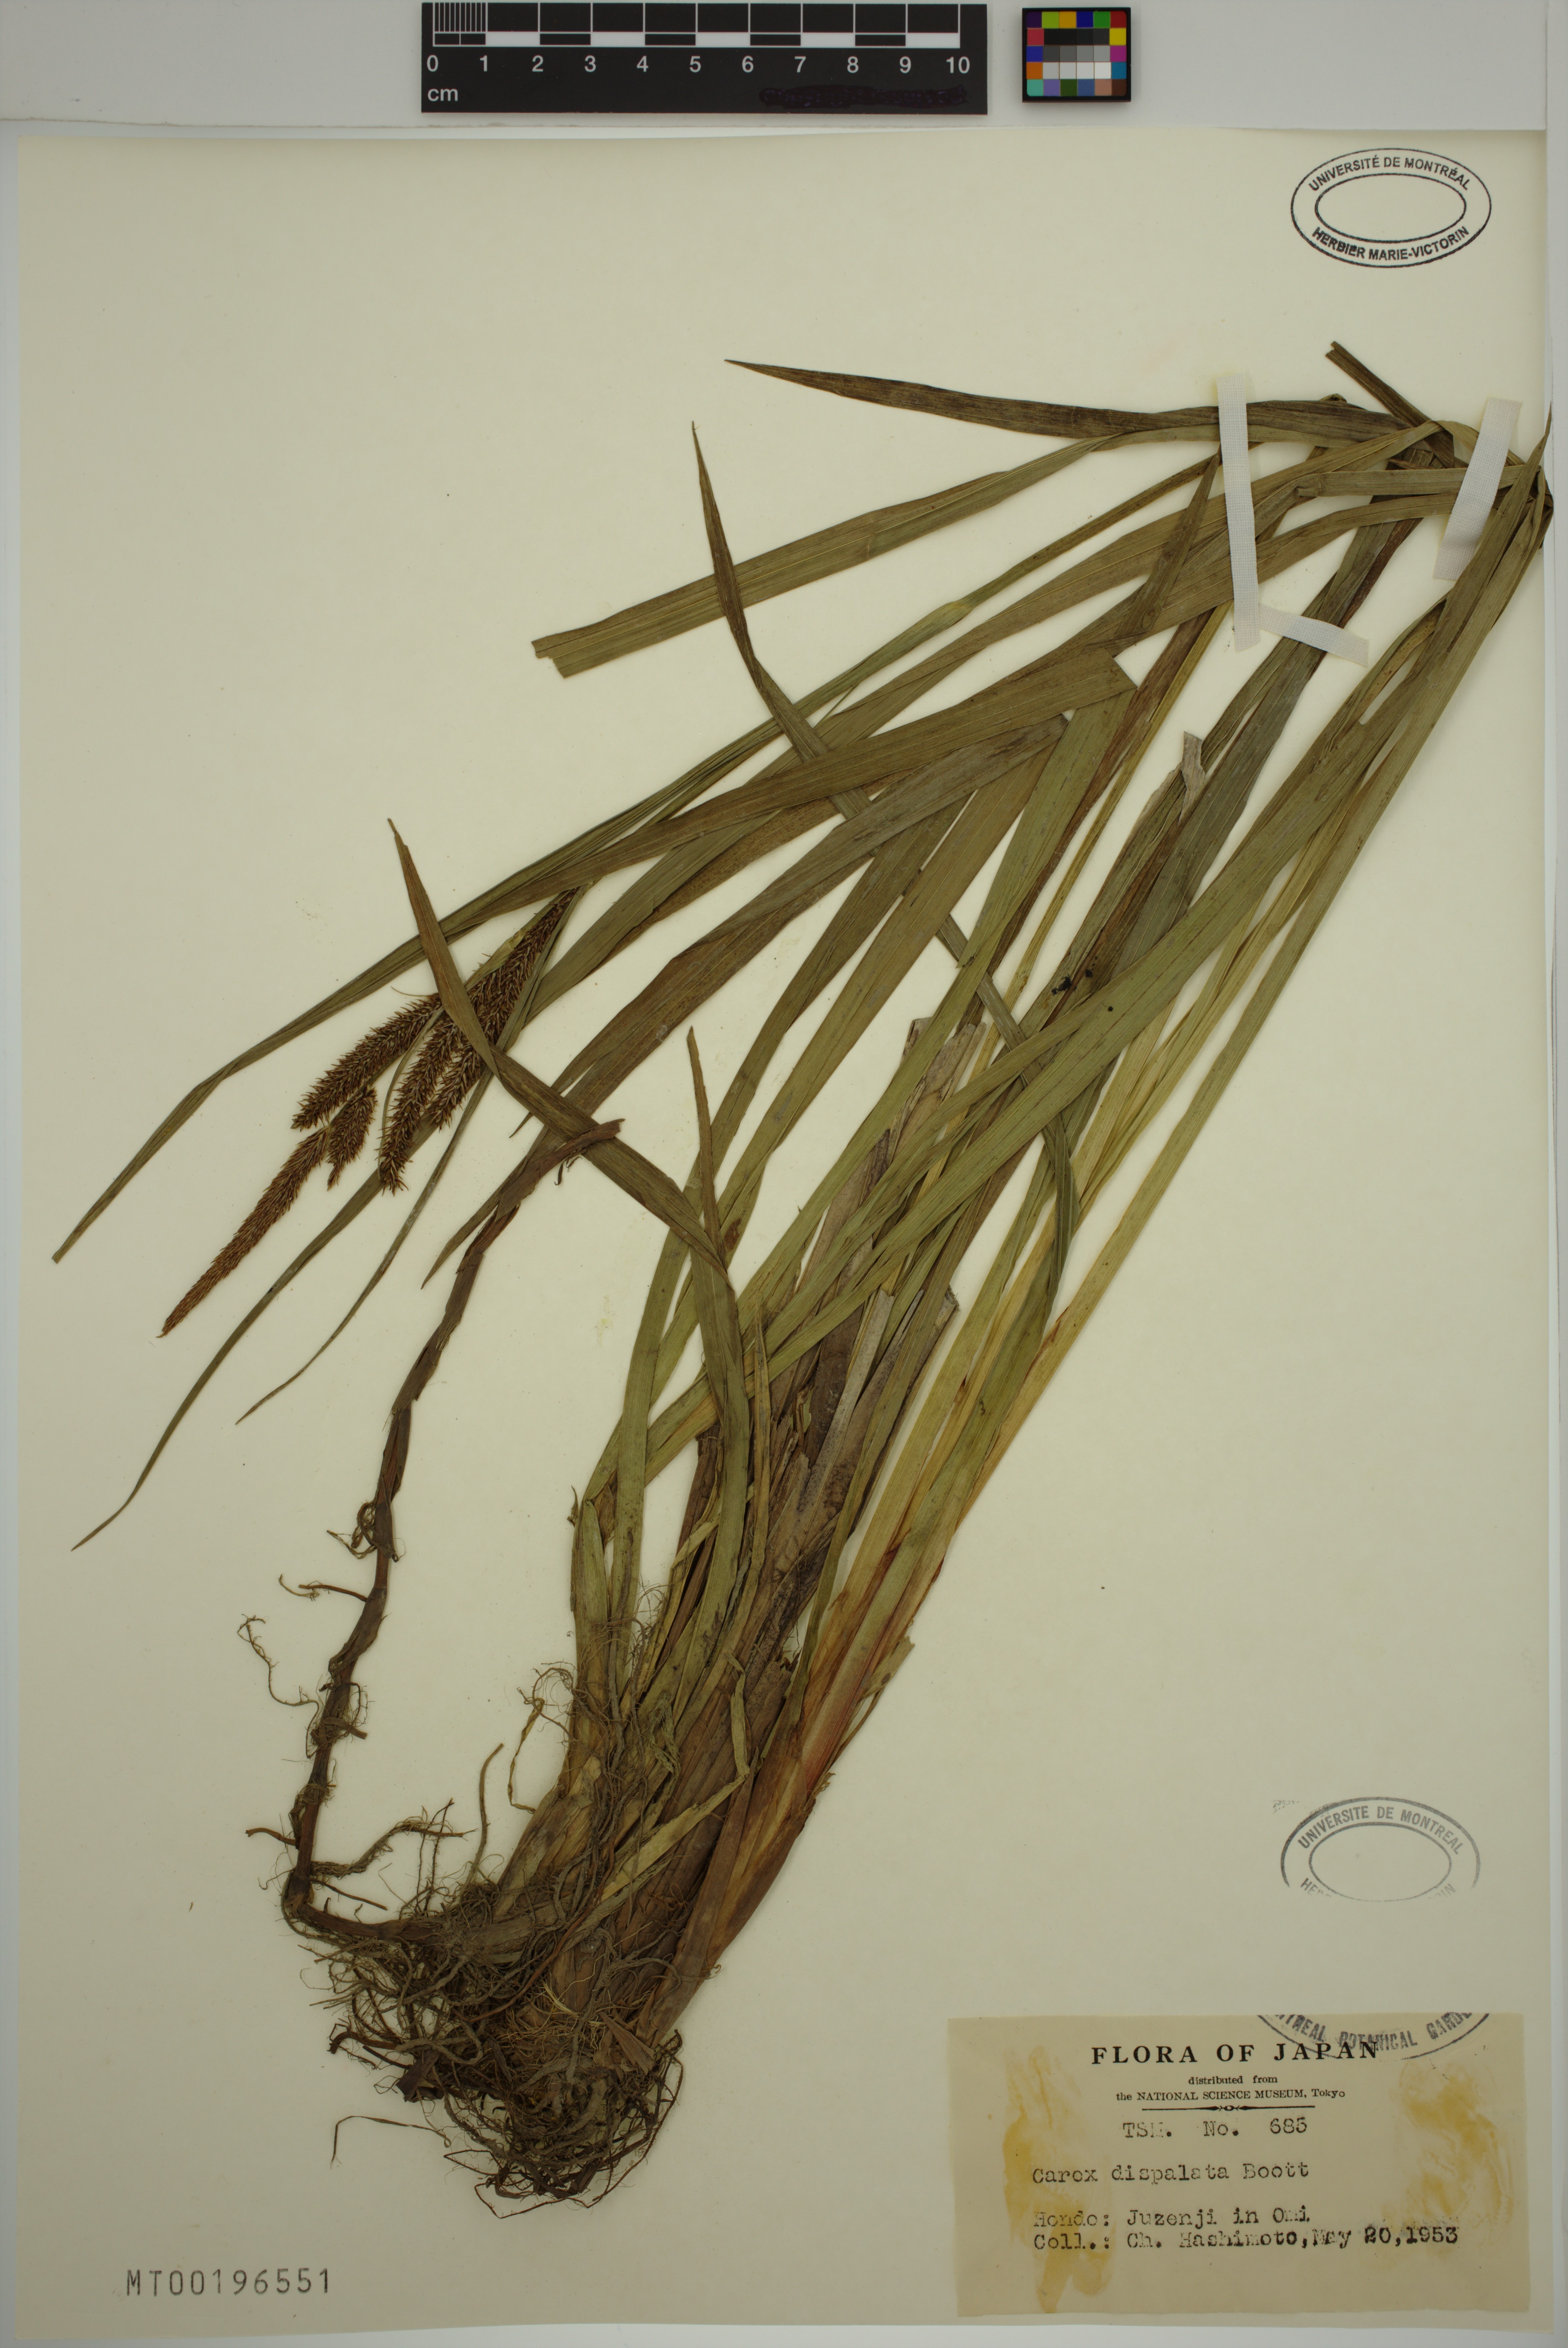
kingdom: Plantae
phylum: Tracheophyta
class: Liliopsida
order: Poales
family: Cyperaceae
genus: Carex
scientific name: Carex dispalata
